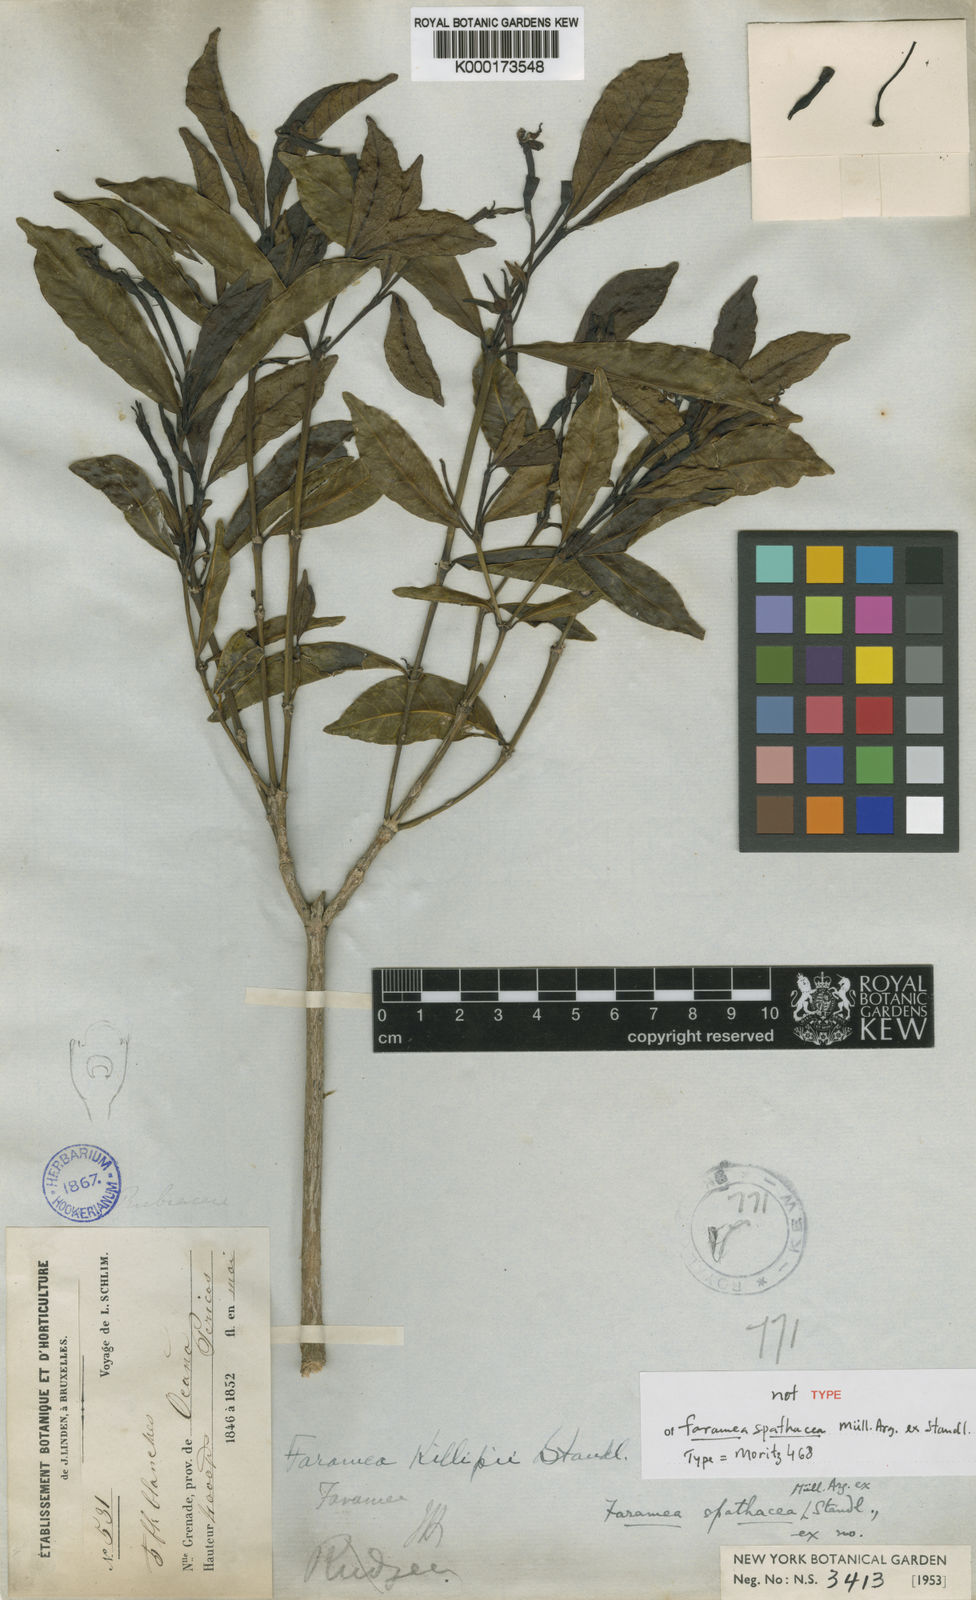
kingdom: Plantae
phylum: Tracheophyta
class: Magnoliopsida
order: Gentianales
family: Rubiaceae
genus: Faramea
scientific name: Faramea
